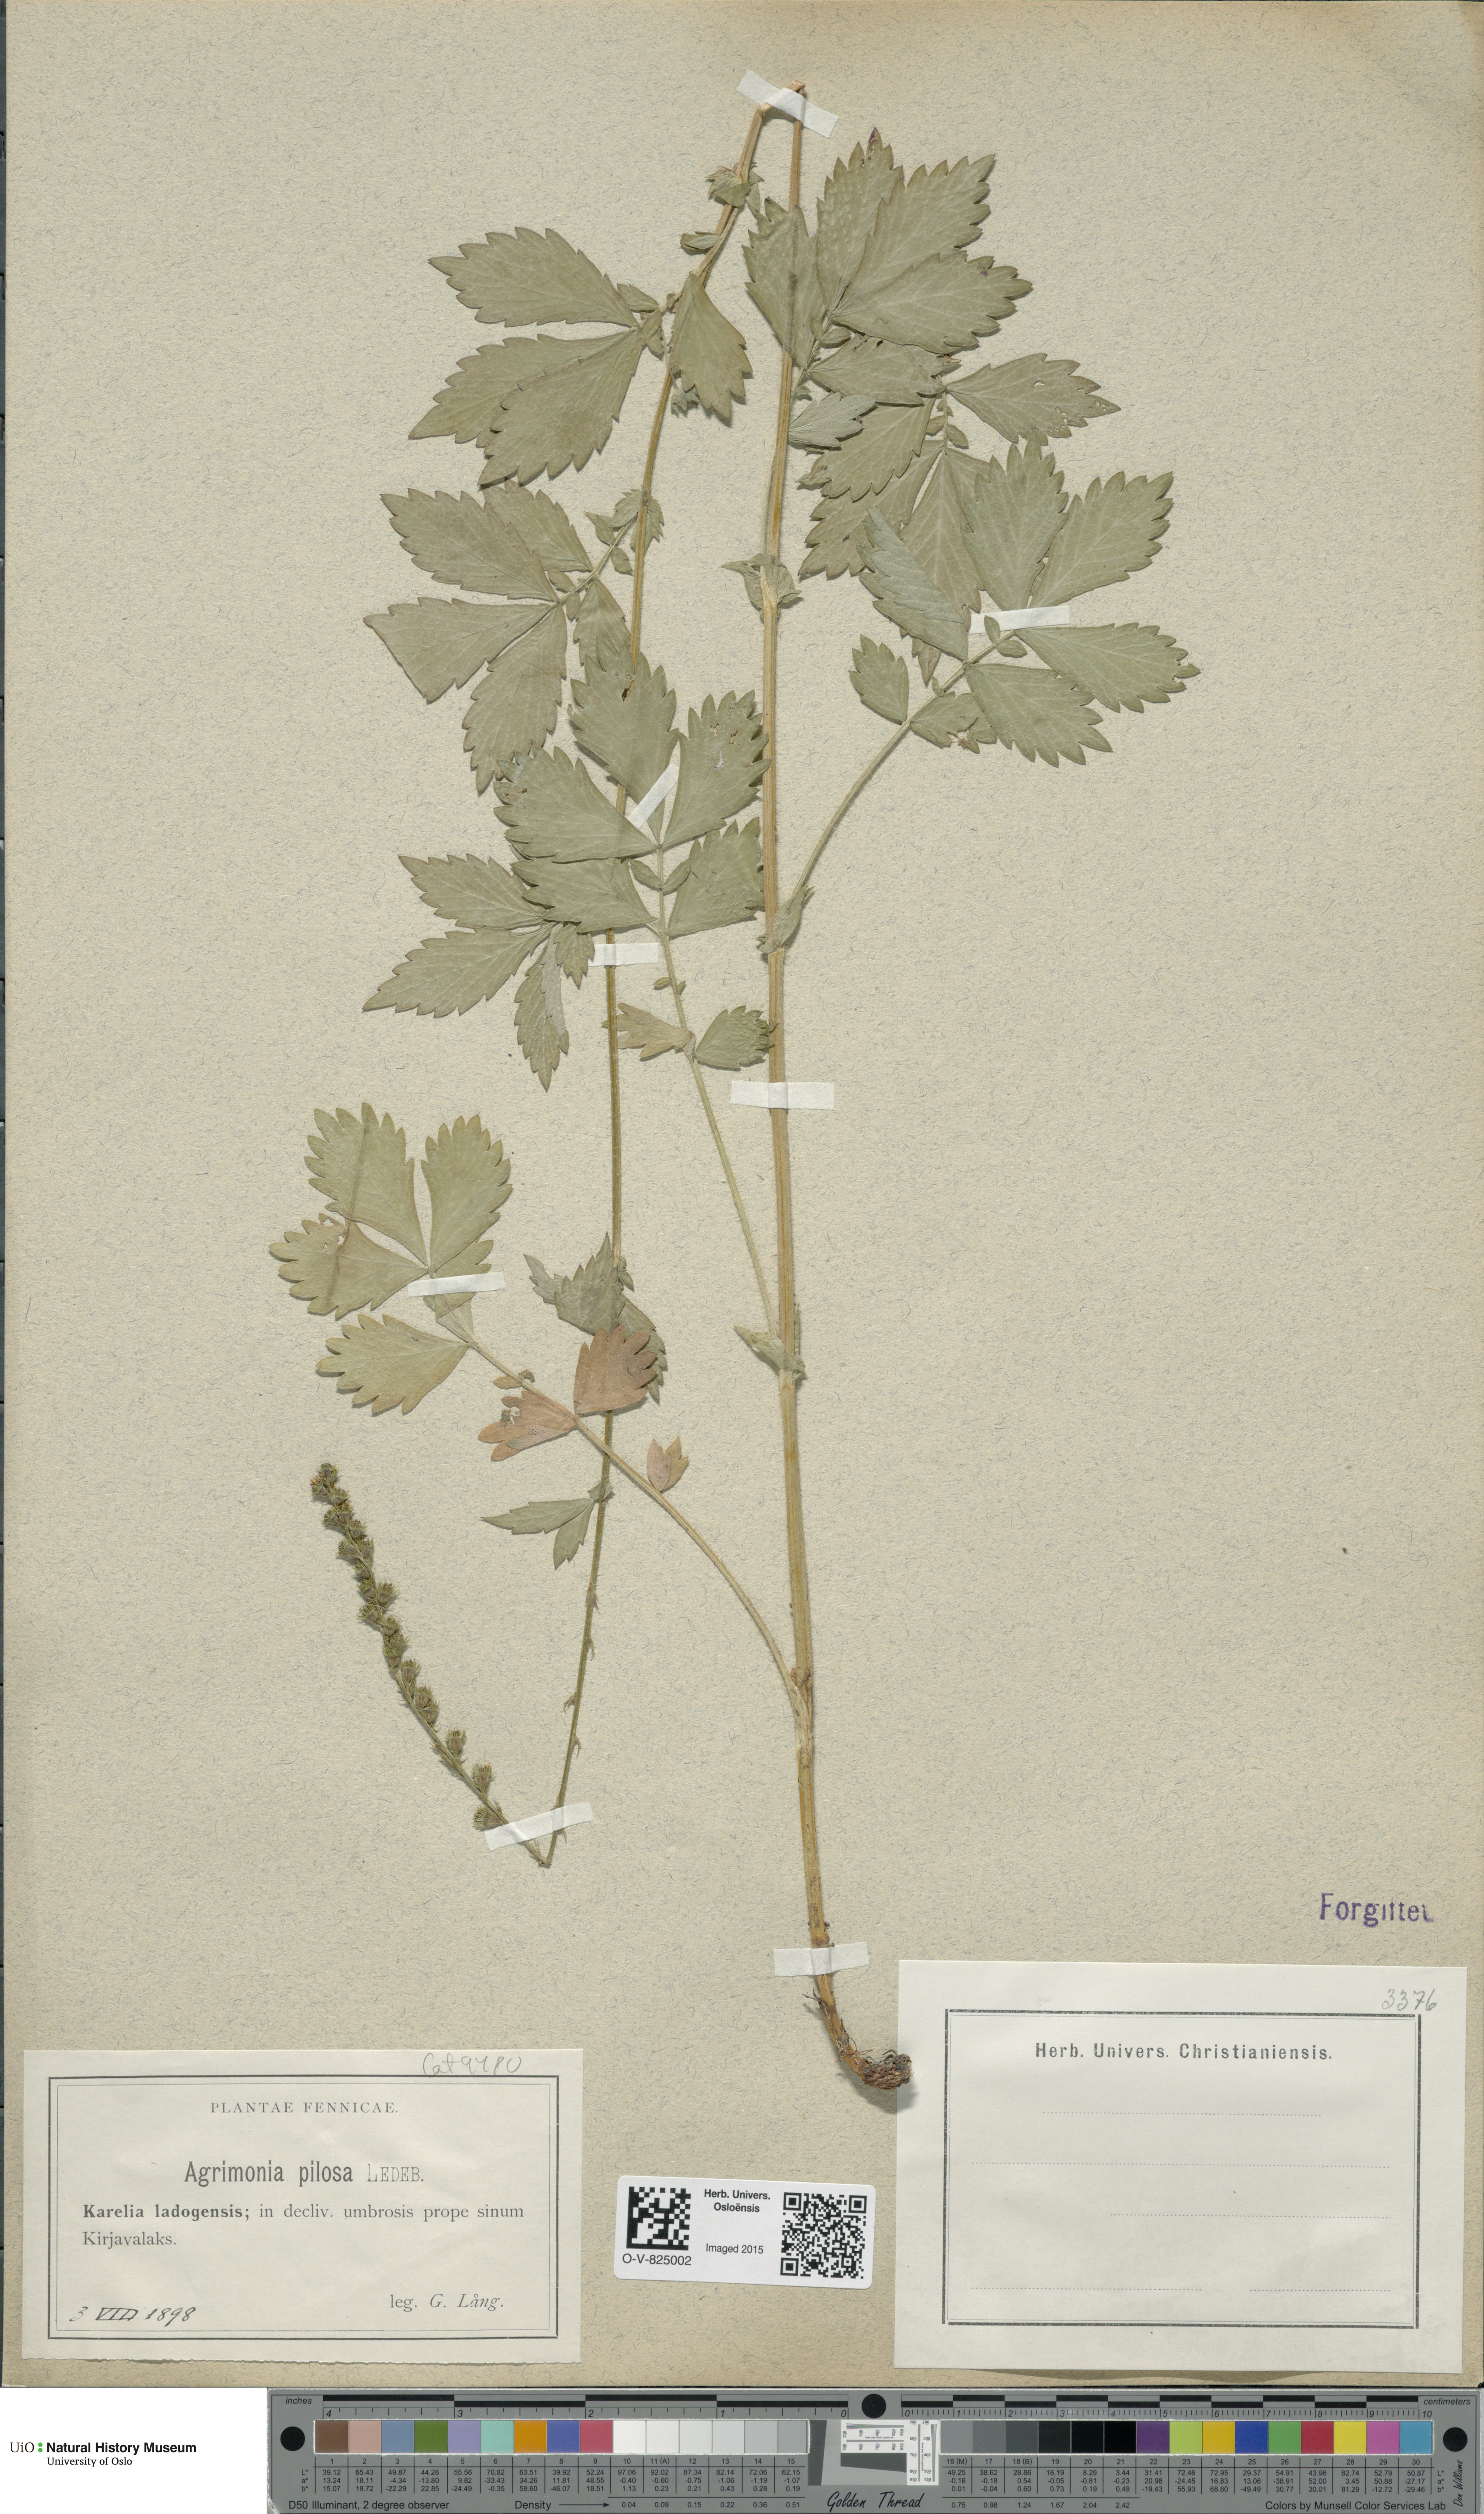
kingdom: Plantae
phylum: Tracheophyta
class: Magnoliopsida
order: Rosales
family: Rosaceae
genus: Agrimonia
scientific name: Agrimonia pilosa
